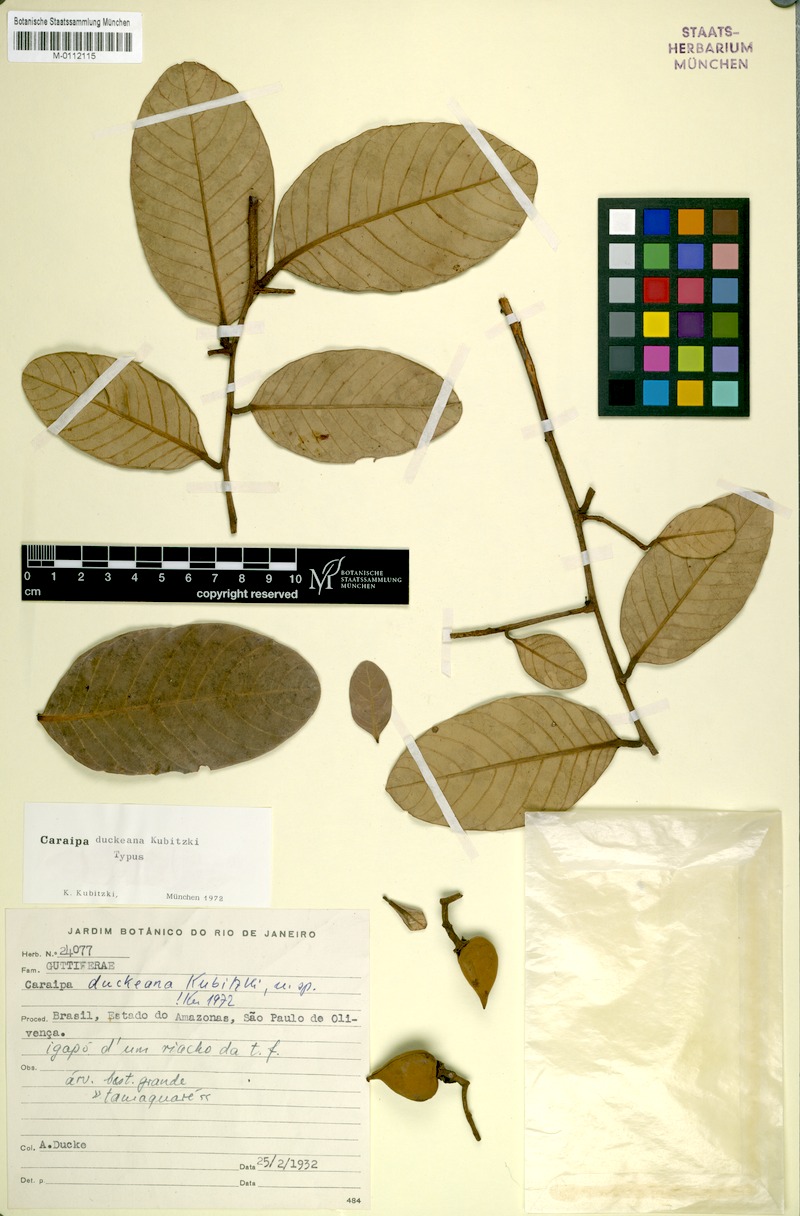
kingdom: Plantae
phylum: Tracheophyta
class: Magnoliopsida
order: Malpighiales
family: Calophyllaceae
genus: Caraipa
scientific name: Caraipa duckeana
